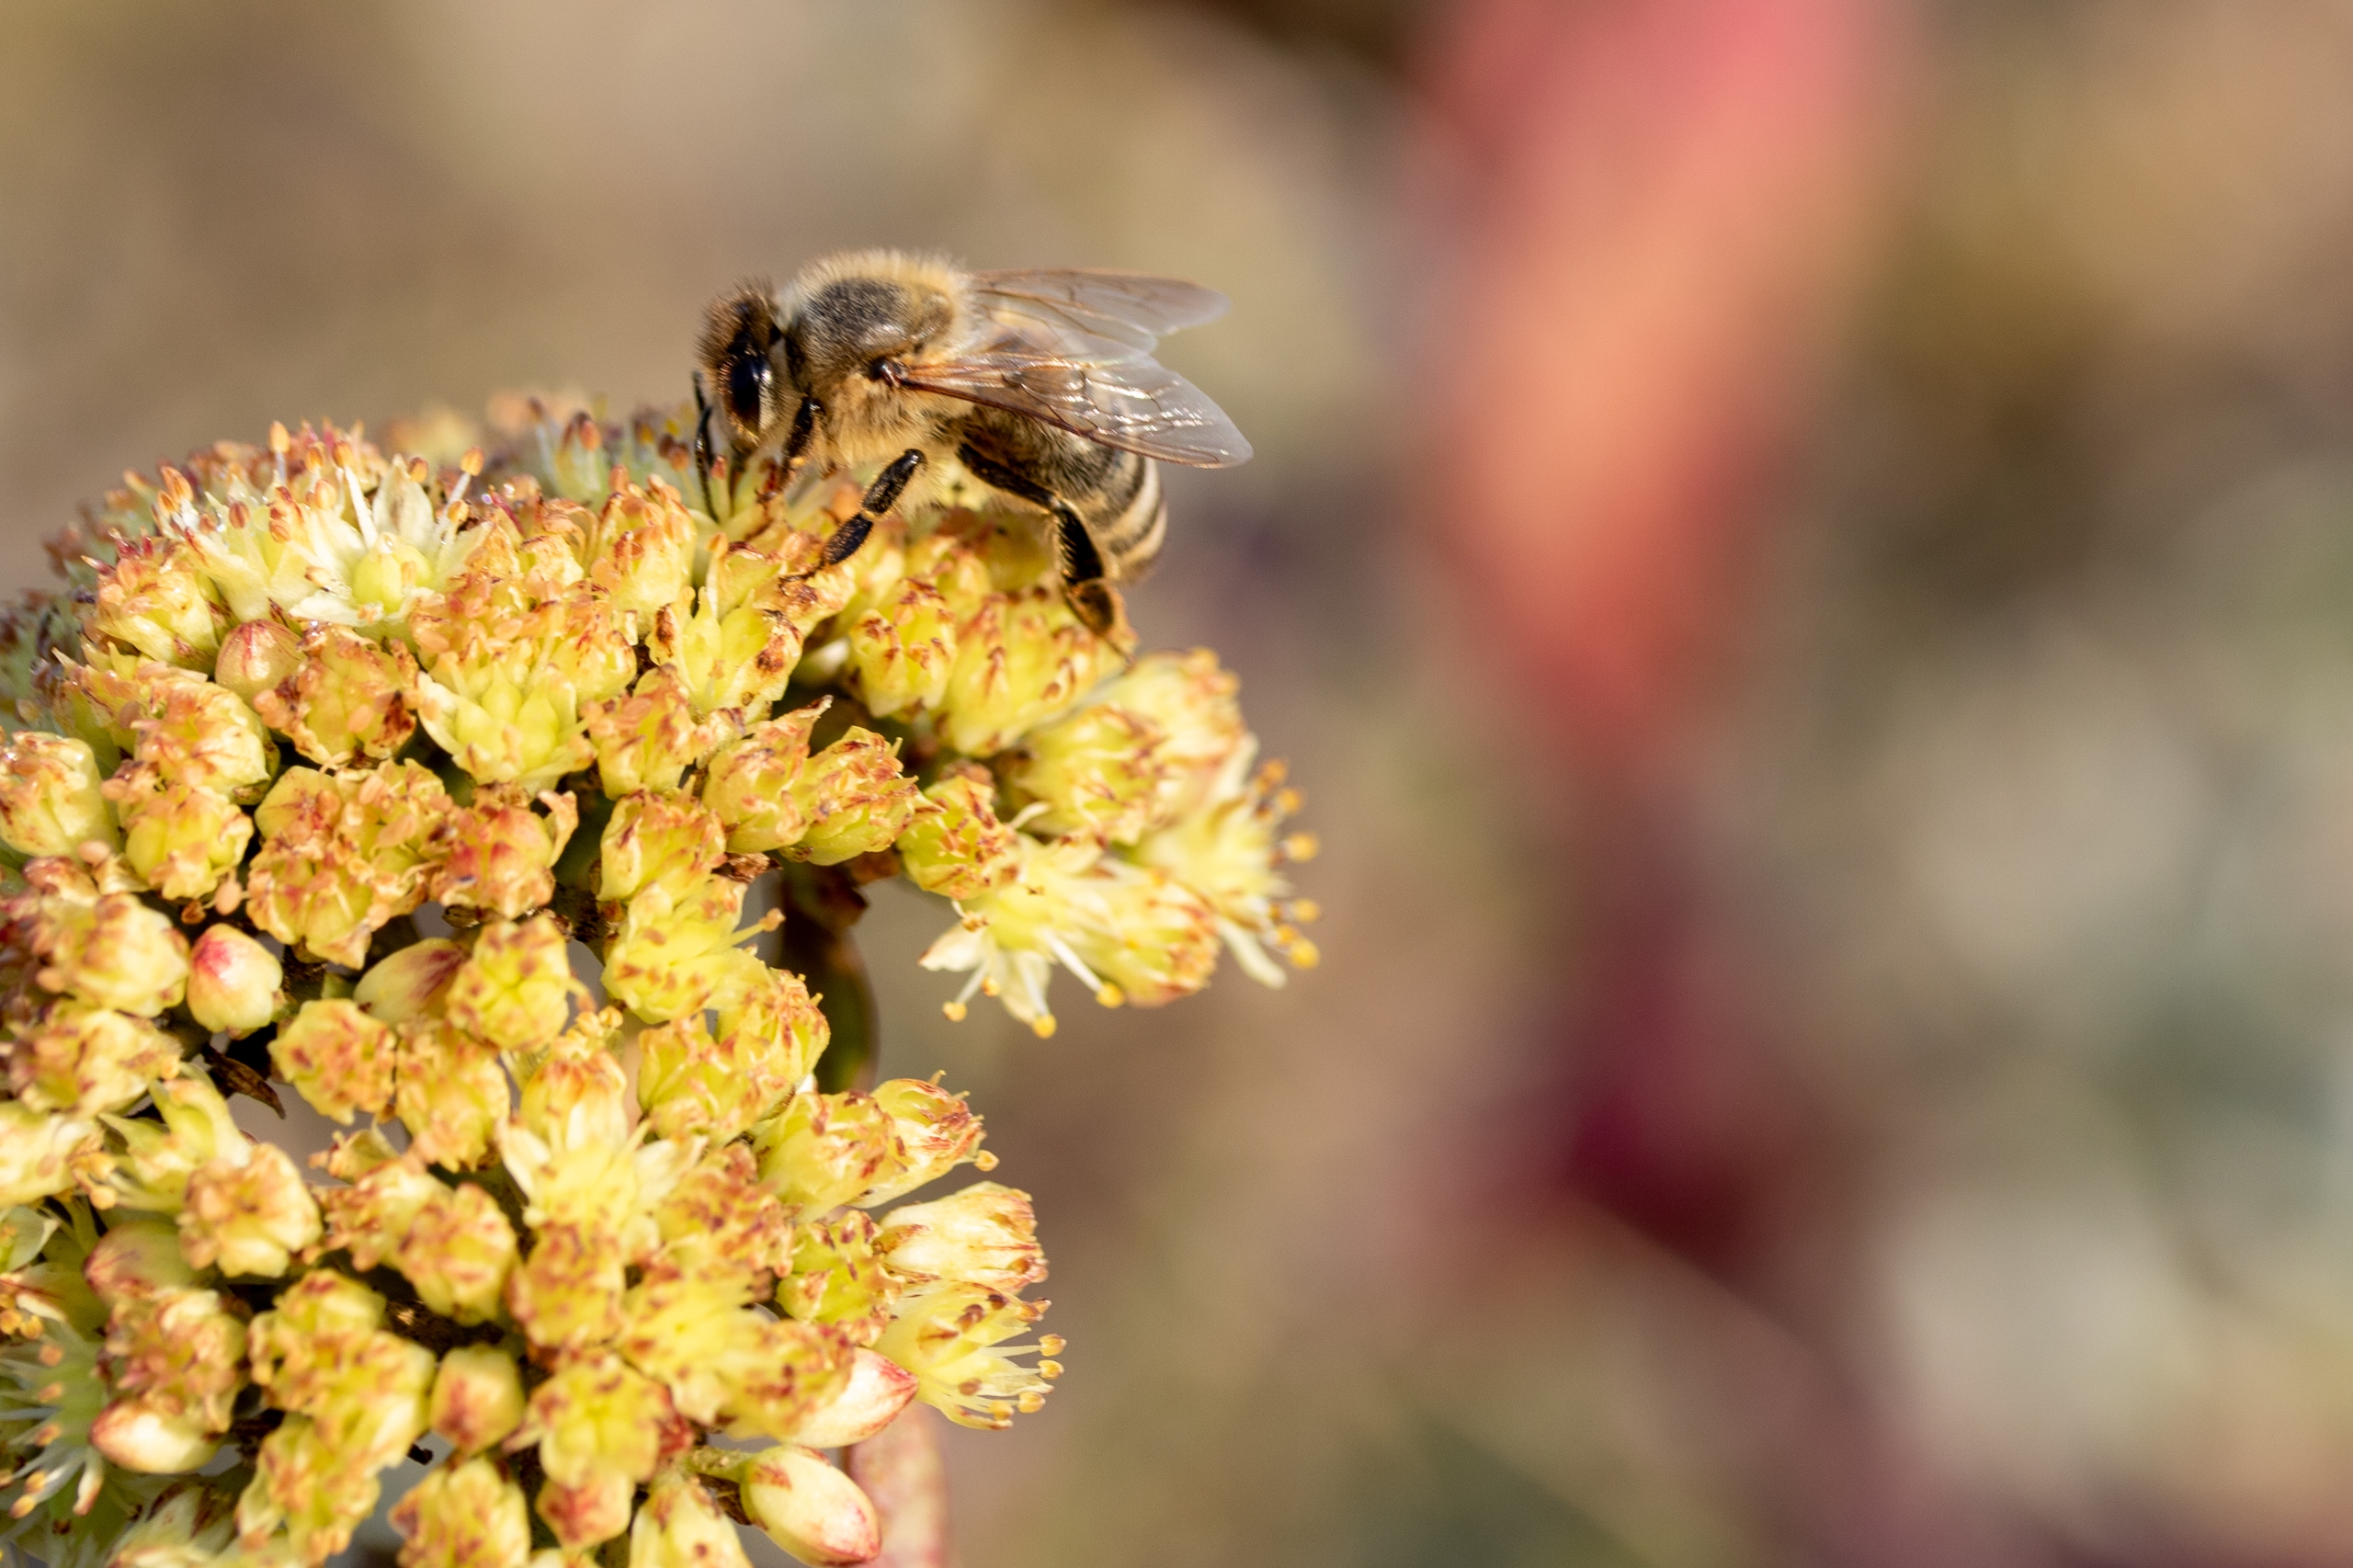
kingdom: Plantae
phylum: Tracheophyta
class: Magnoliopsida
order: Saxifragales
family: Crassulaceae
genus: Hylotelephium
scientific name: Hylotelephium maximum
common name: Almindelig sankthansurt
